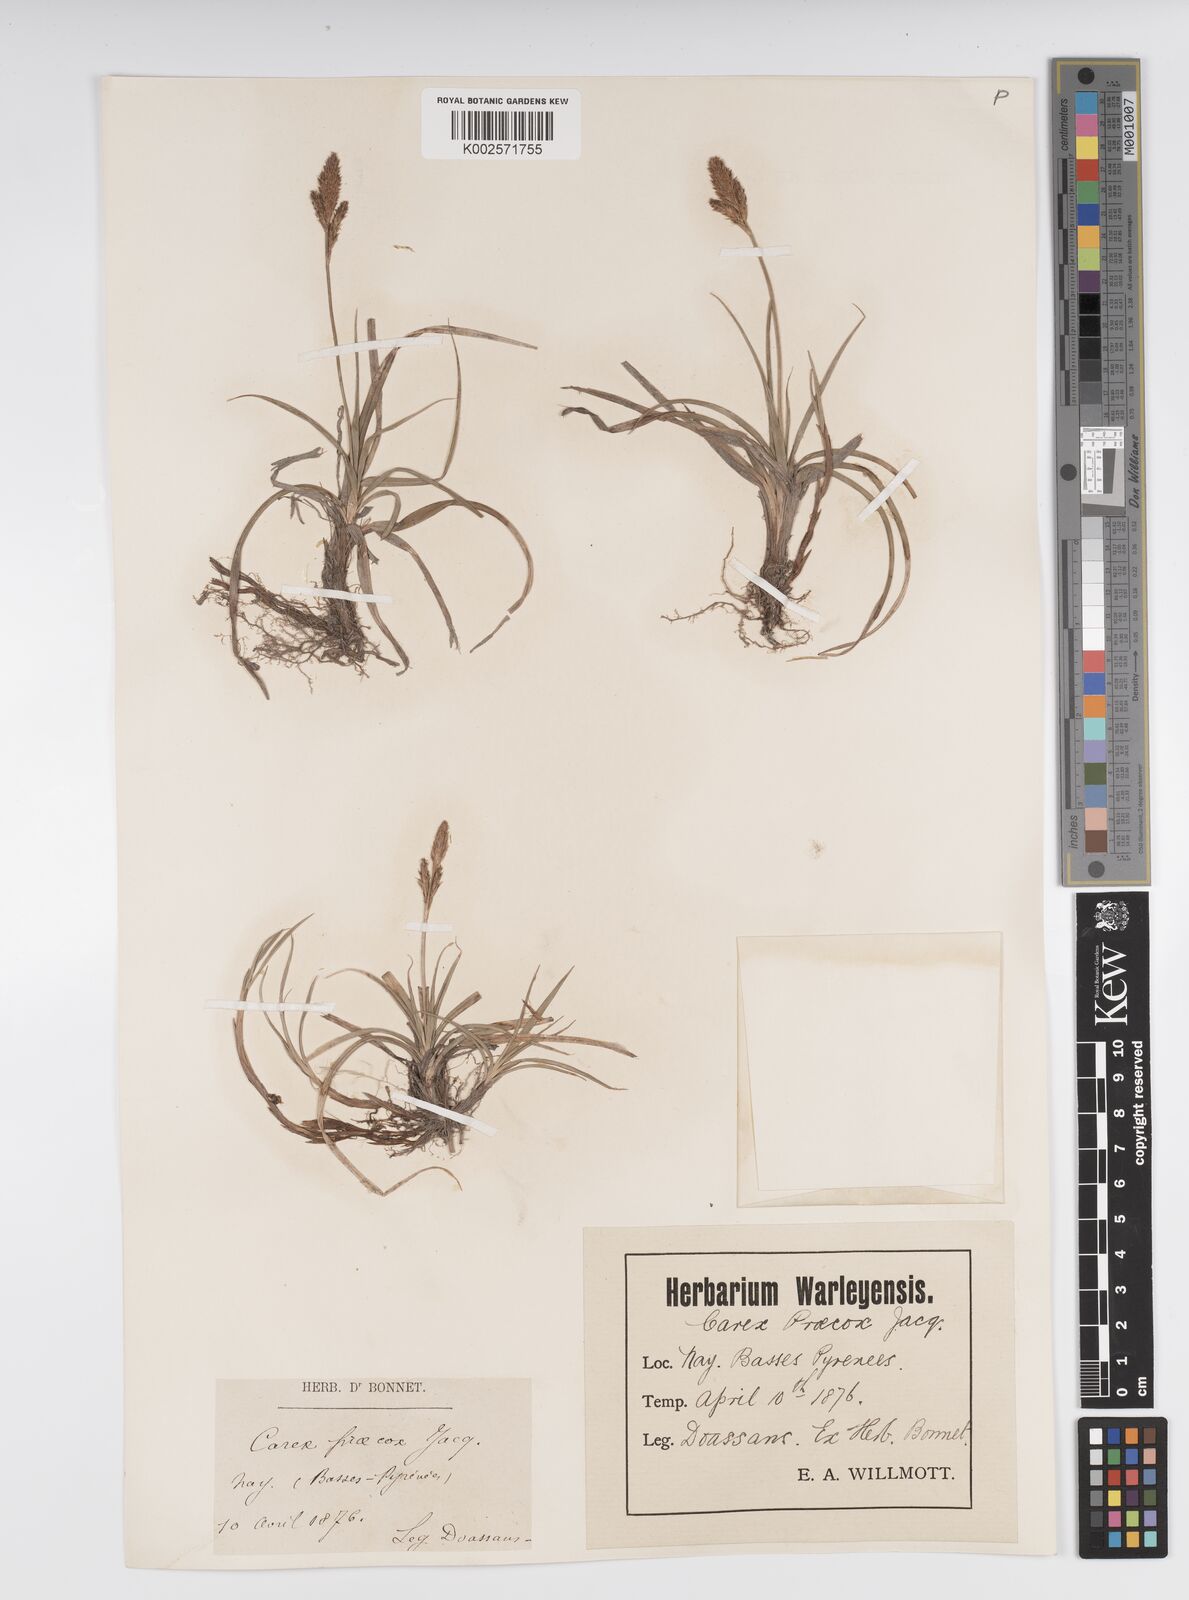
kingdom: Plantae
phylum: Tracheophyta
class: Liliopsida
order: Poales
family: Cyperaceae
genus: Carex
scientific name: Carex caryophyllea
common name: Spring sedge
